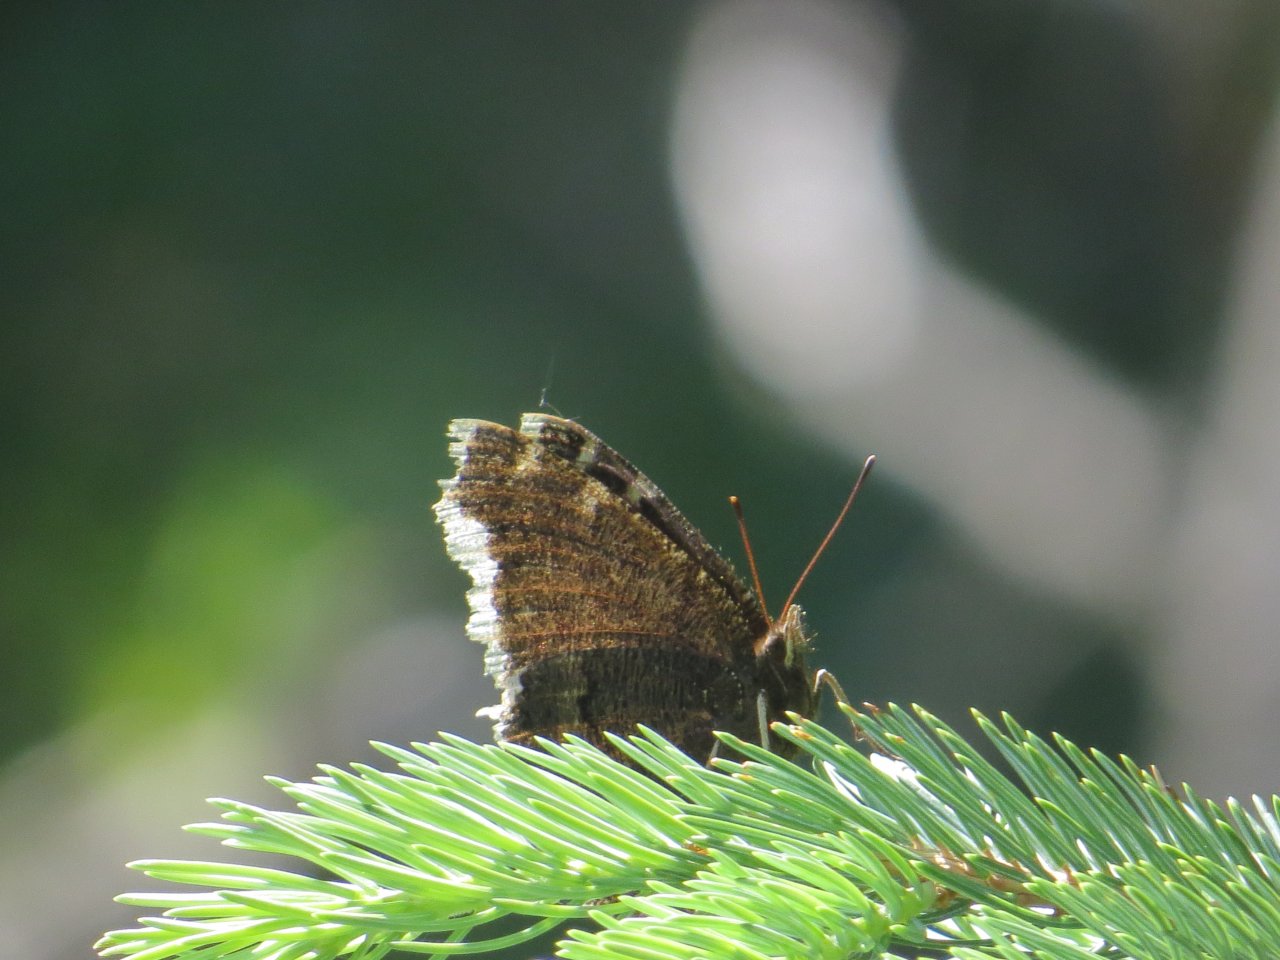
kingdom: Animalia
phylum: Arthropoda
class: Insecta
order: Lepidoptera
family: Nymphalidae
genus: Nymphalis
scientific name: Nymphalis antiopa
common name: Mourning Cloak
